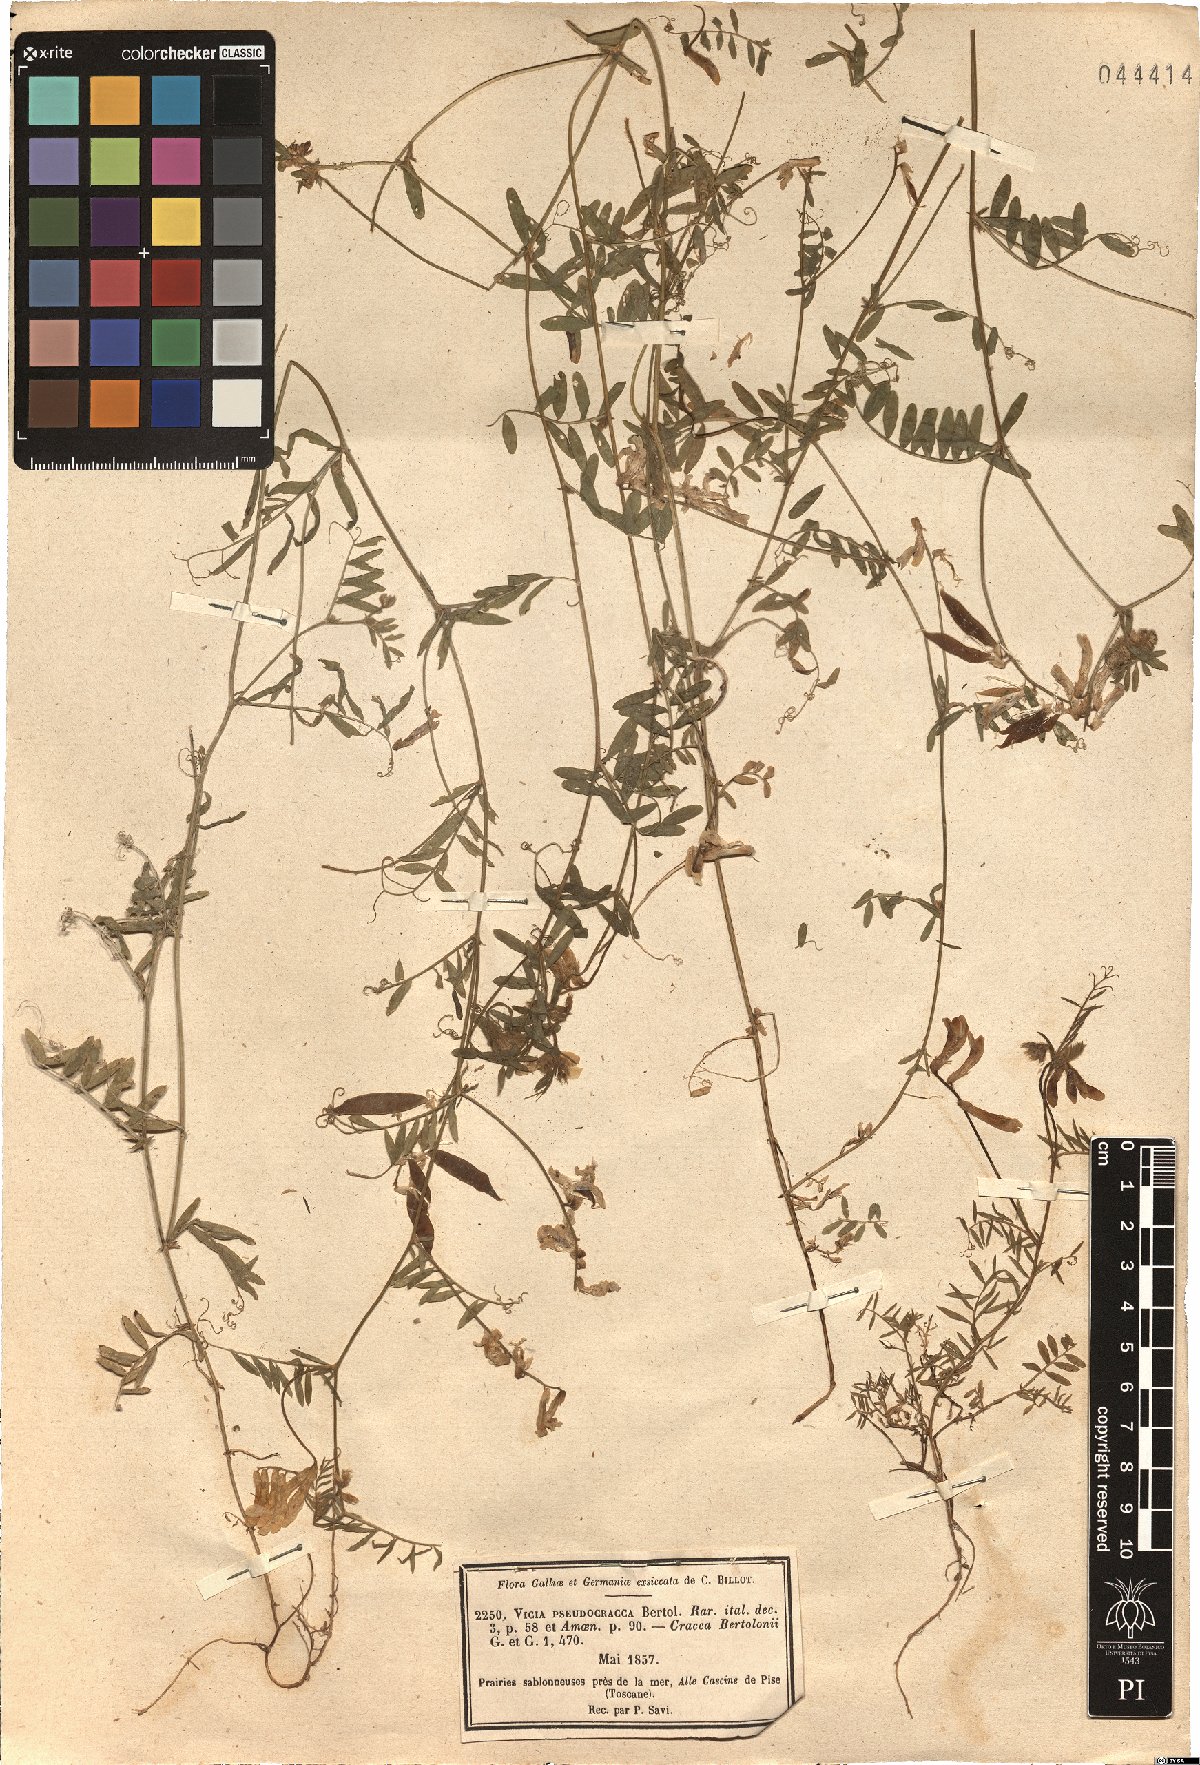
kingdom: Plantae
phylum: Tracheophyta
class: Magnoliopsida
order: Fabales
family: Fabaceae
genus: Vicia
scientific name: Vicia villosa
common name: Fodder vetch
